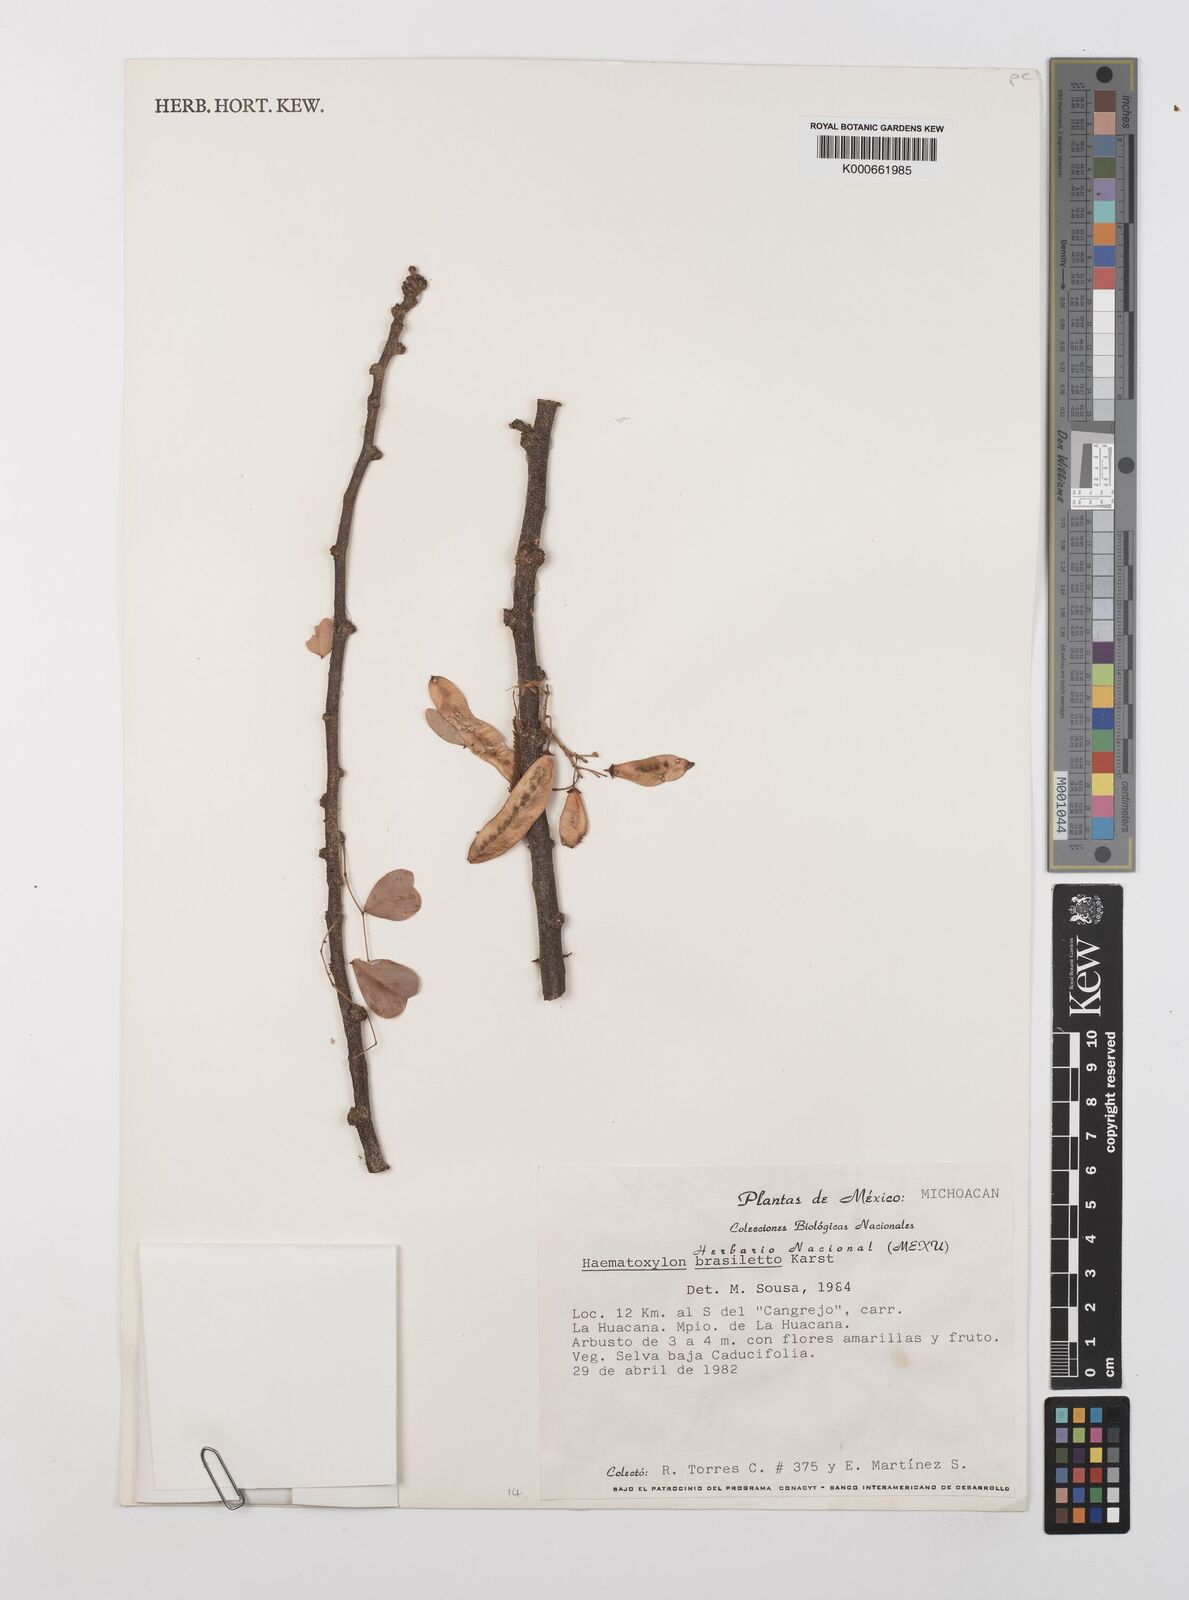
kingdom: Plantae
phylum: Tracheophyta
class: Magnoliopsida
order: Fabales
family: Fabaceae
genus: Haematoxylum
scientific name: Haematoxylum brasiletto
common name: Peachwood
